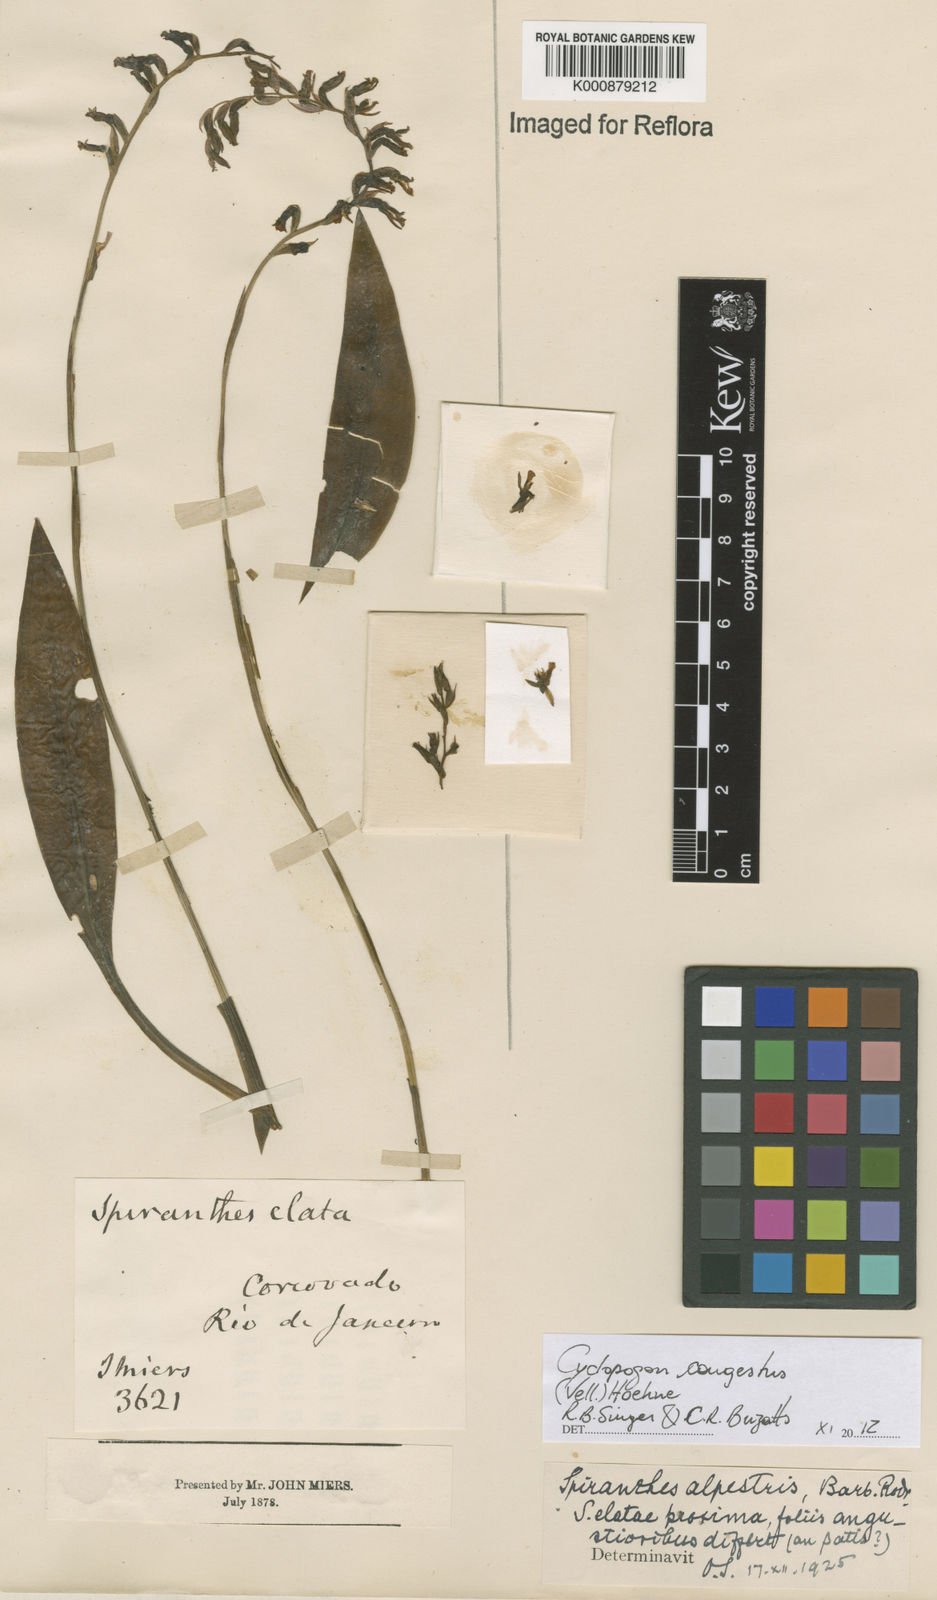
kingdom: Plantae
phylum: Tracheophyta
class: Liliopsida
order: Asparagales
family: Orchidaceae
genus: Cyclopogon
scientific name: Cyclopogon congestus
